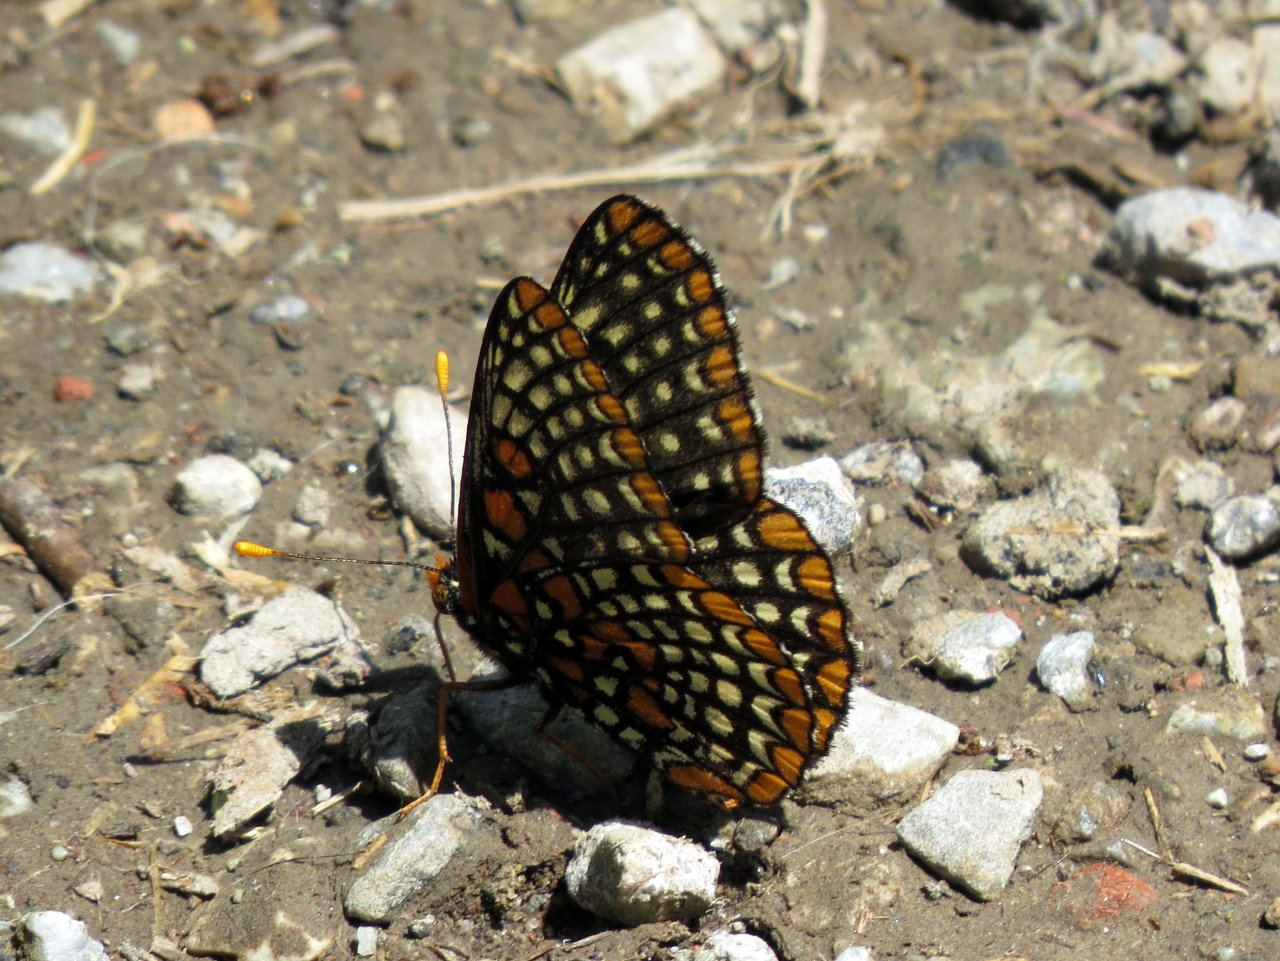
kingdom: Animalia
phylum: Arthropoda
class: Insecta
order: Lepidoptera
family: Nymphalidae
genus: Euphydryas
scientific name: Euphydryas phaeton
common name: Baltimore Checkerspot
